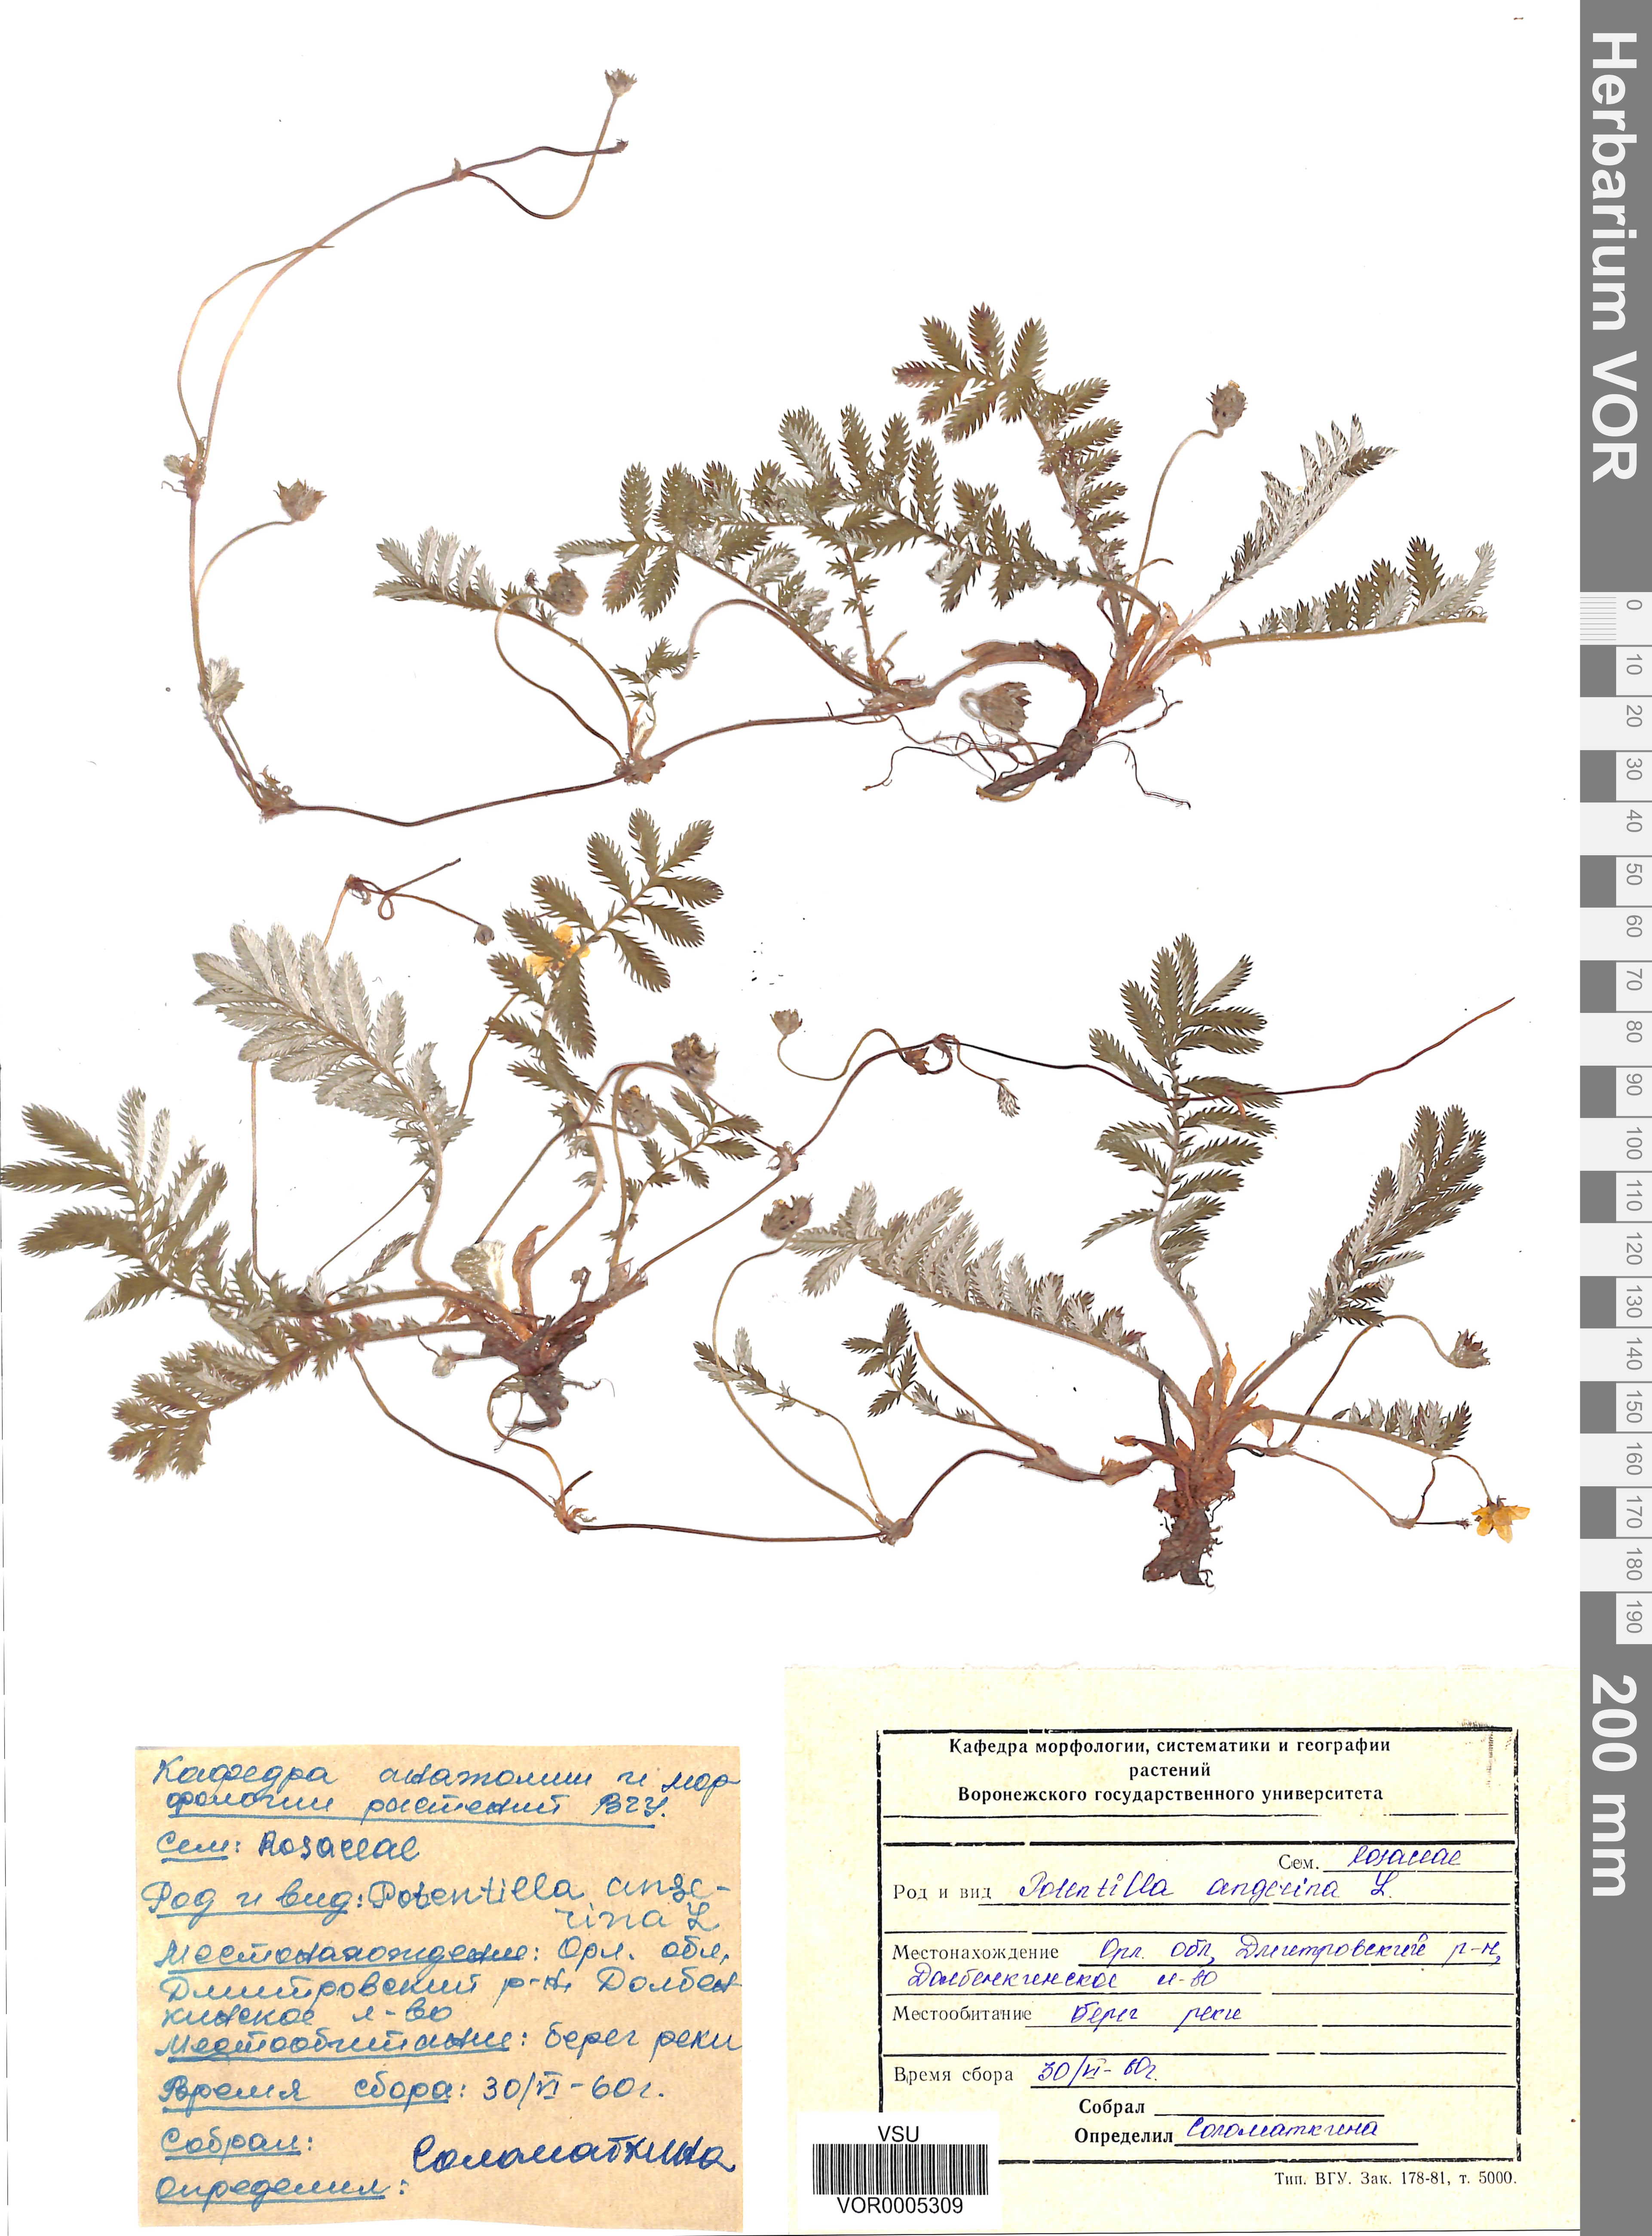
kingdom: Plantae
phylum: Tracheophyta
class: Magnoliopsida
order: Rosales
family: Rosaceae
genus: Argentina
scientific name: Argentina anserina
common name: Common silverweed
